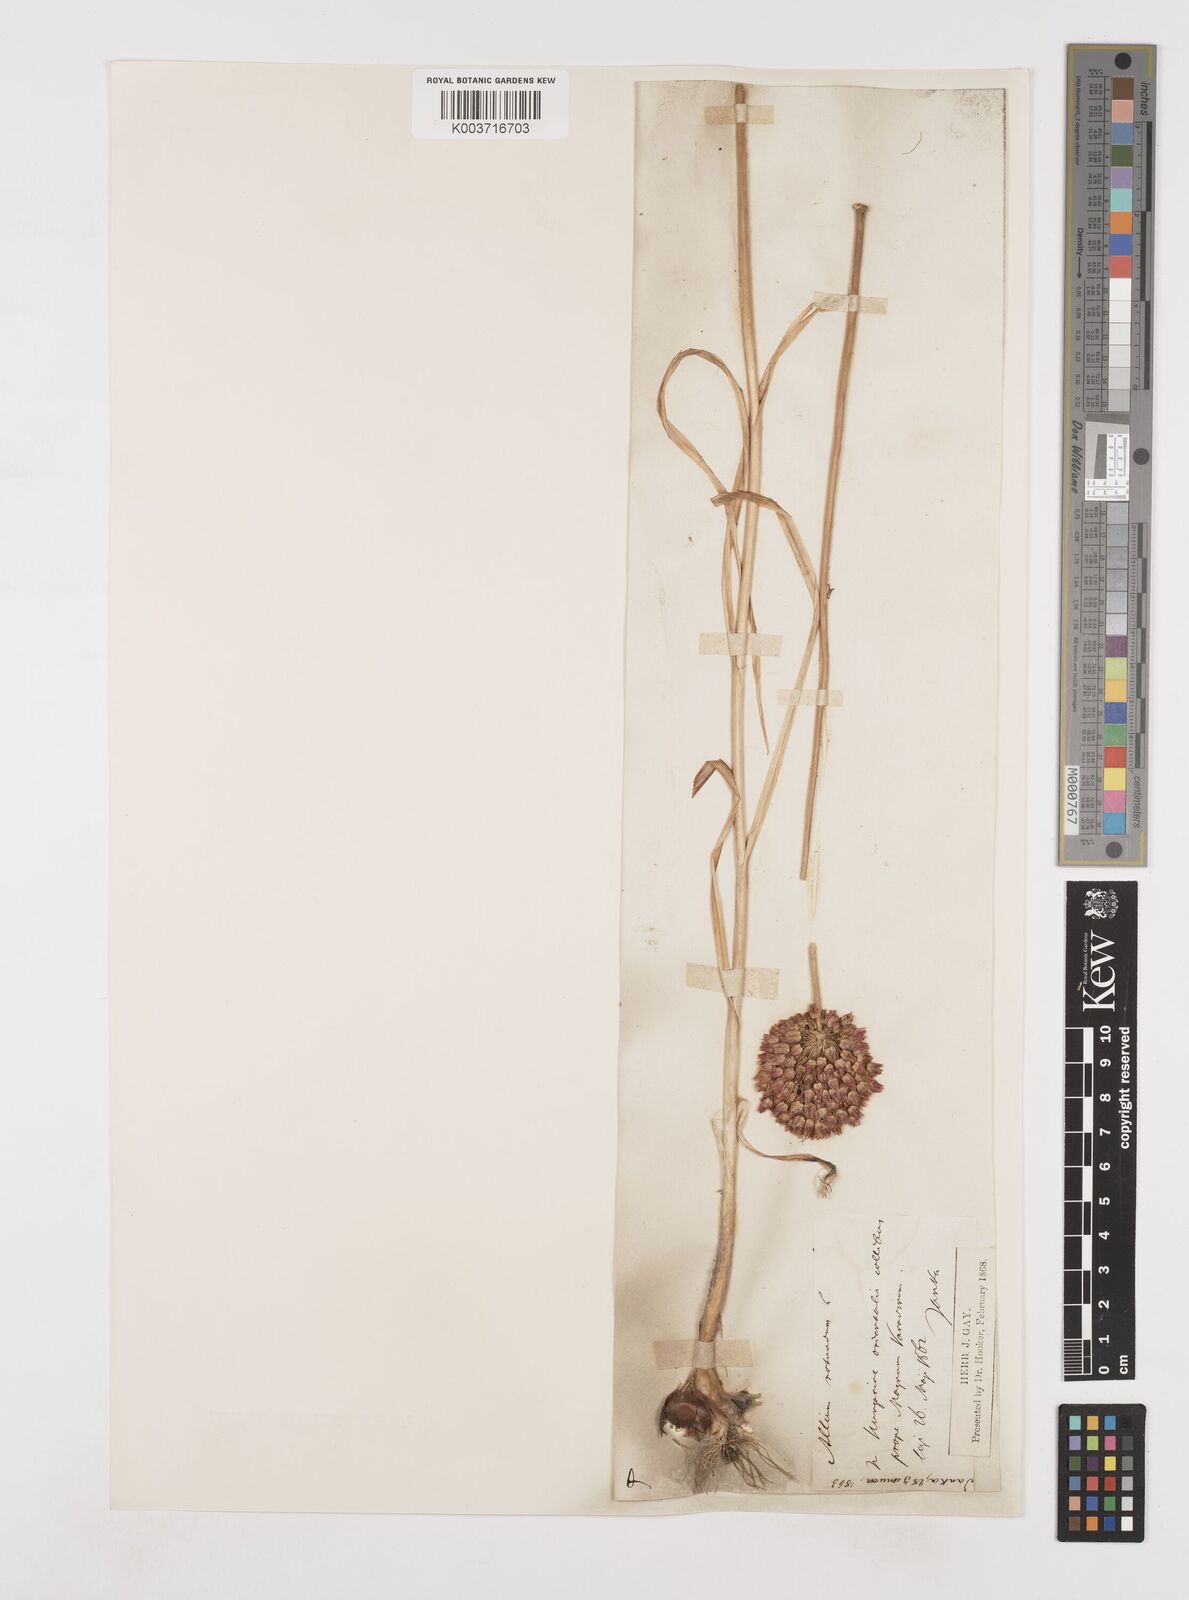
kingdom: Plantae
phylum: Tracheophyta
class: Liliopsida
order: Asparagales
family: Amaryllidaceae
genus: Allium
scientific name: Allium rotundum
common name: Sand leek
